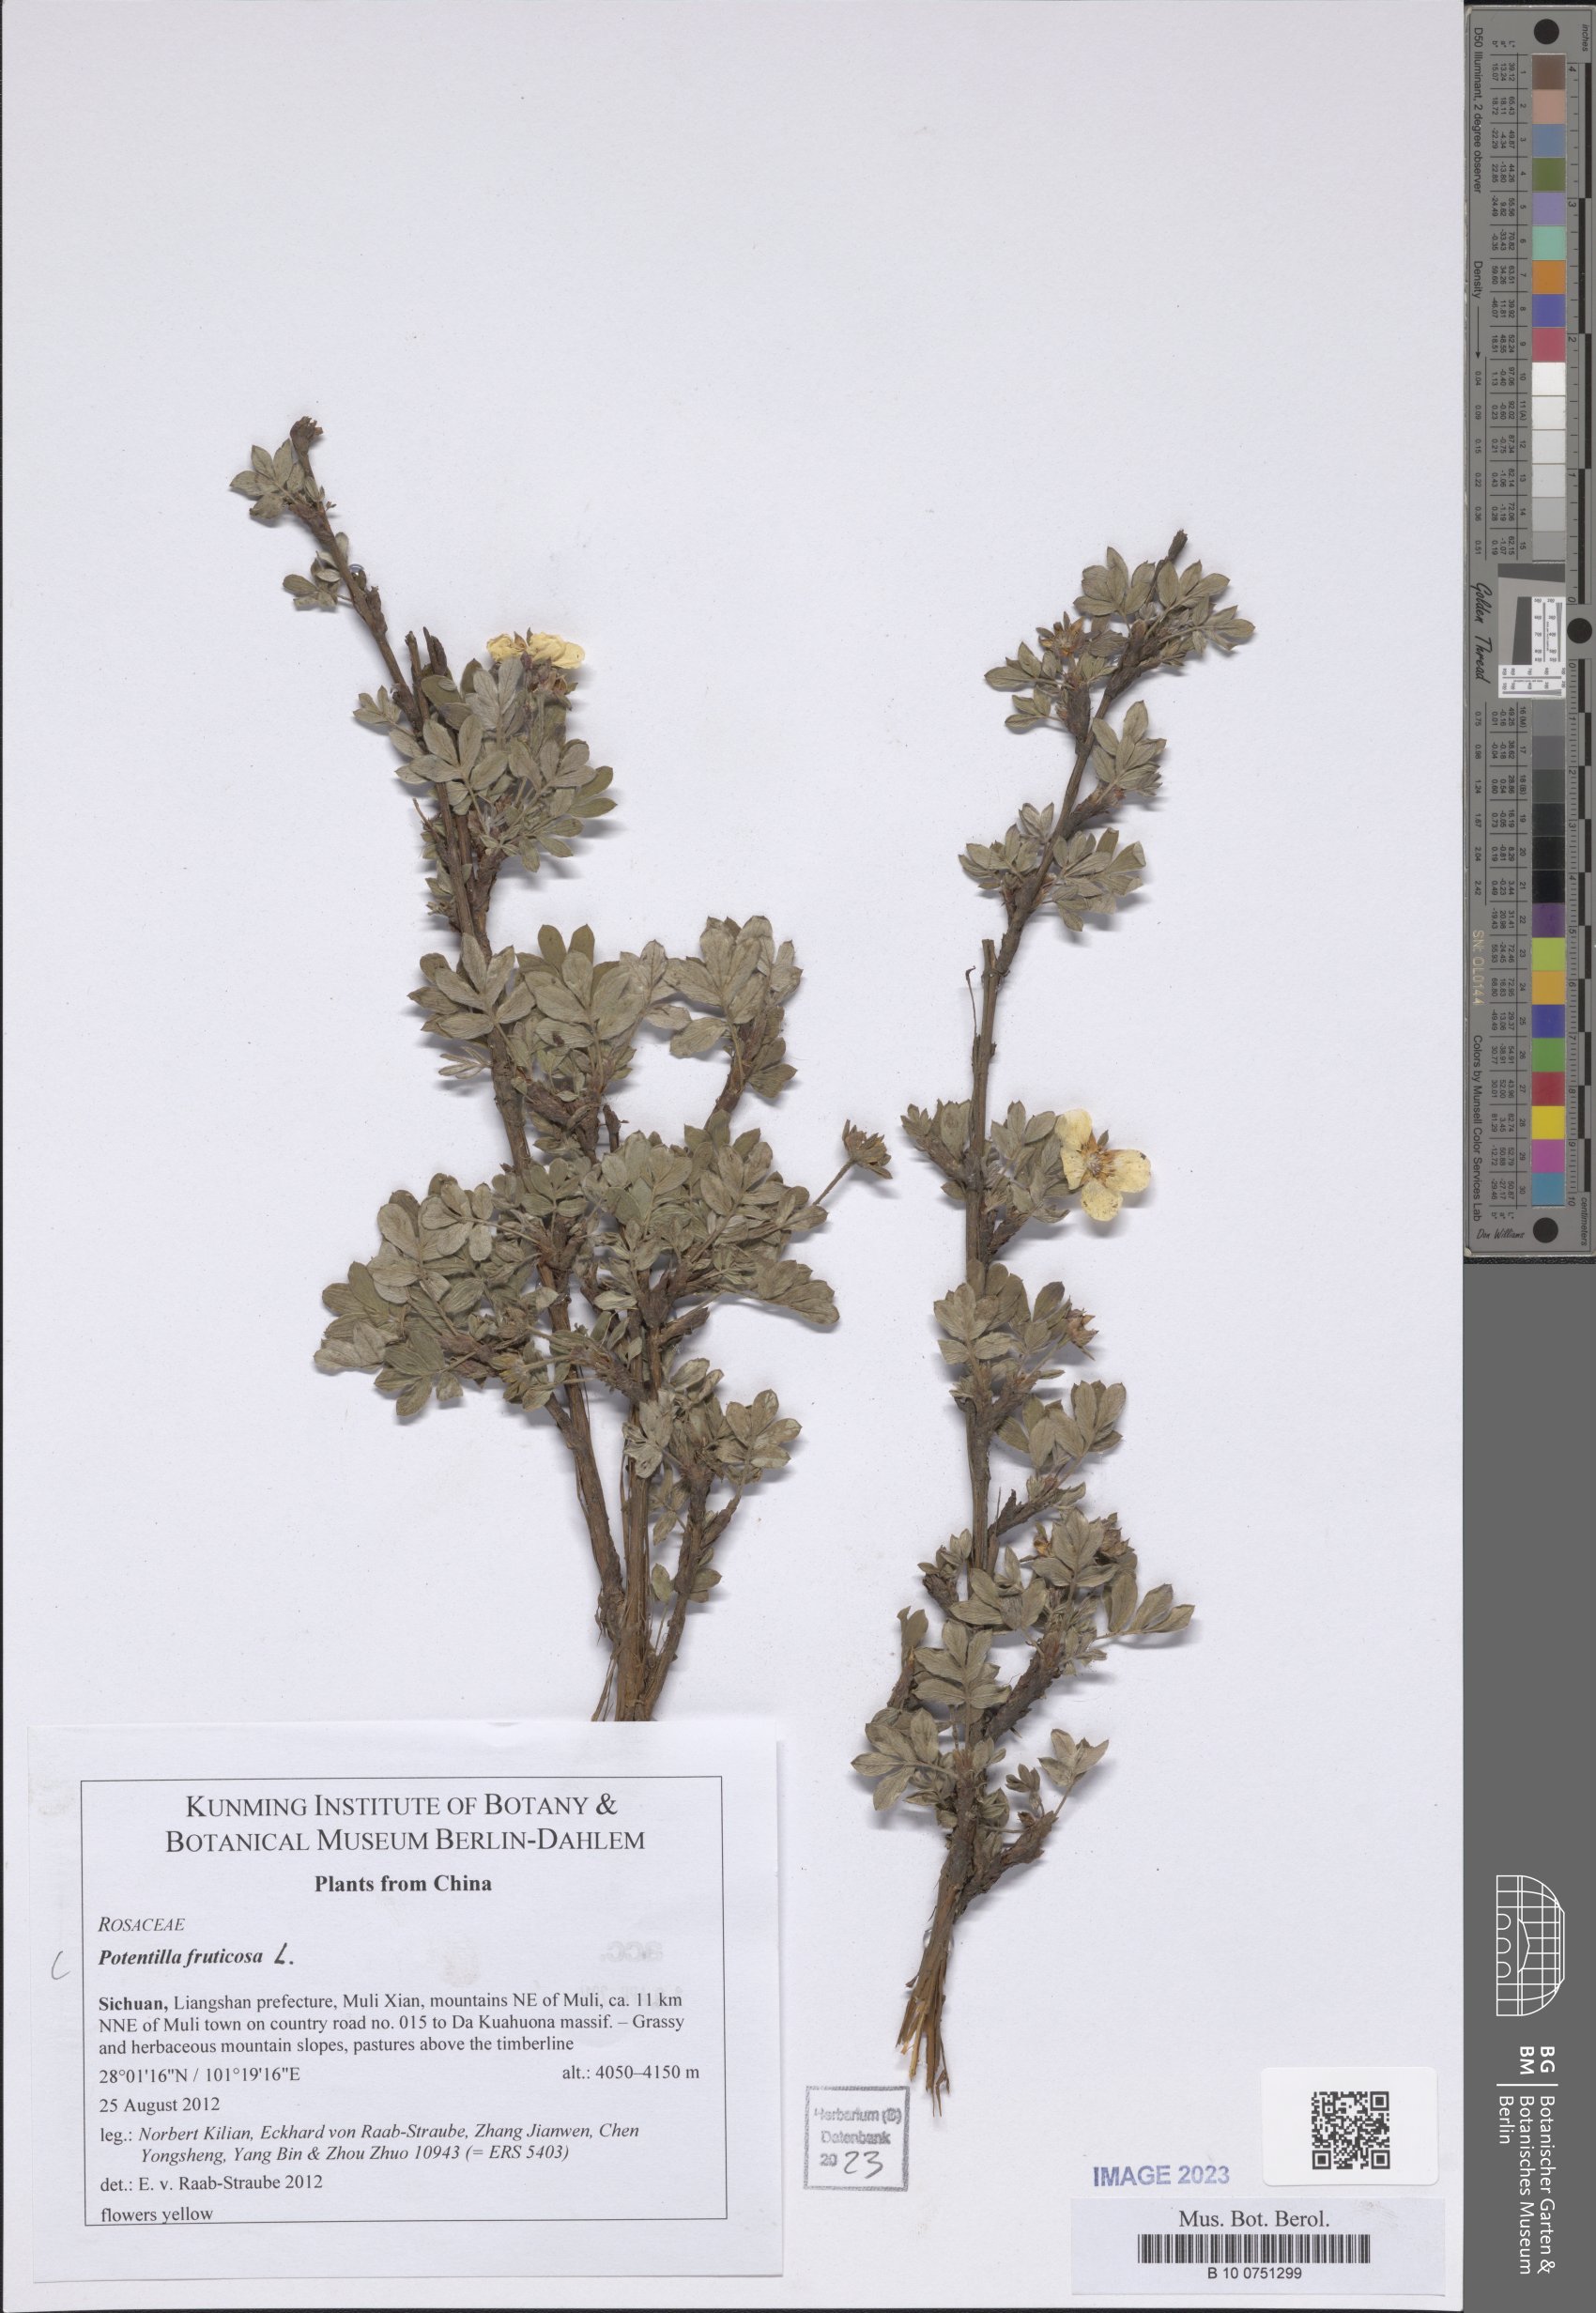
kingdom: Plantae
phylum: Tracheophyta
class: Magnoliopsida
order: Rosales
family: Rosaceae
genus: Dasiphora
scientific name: Dasiphora fruticosa
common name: Shrubby cinquefoil
